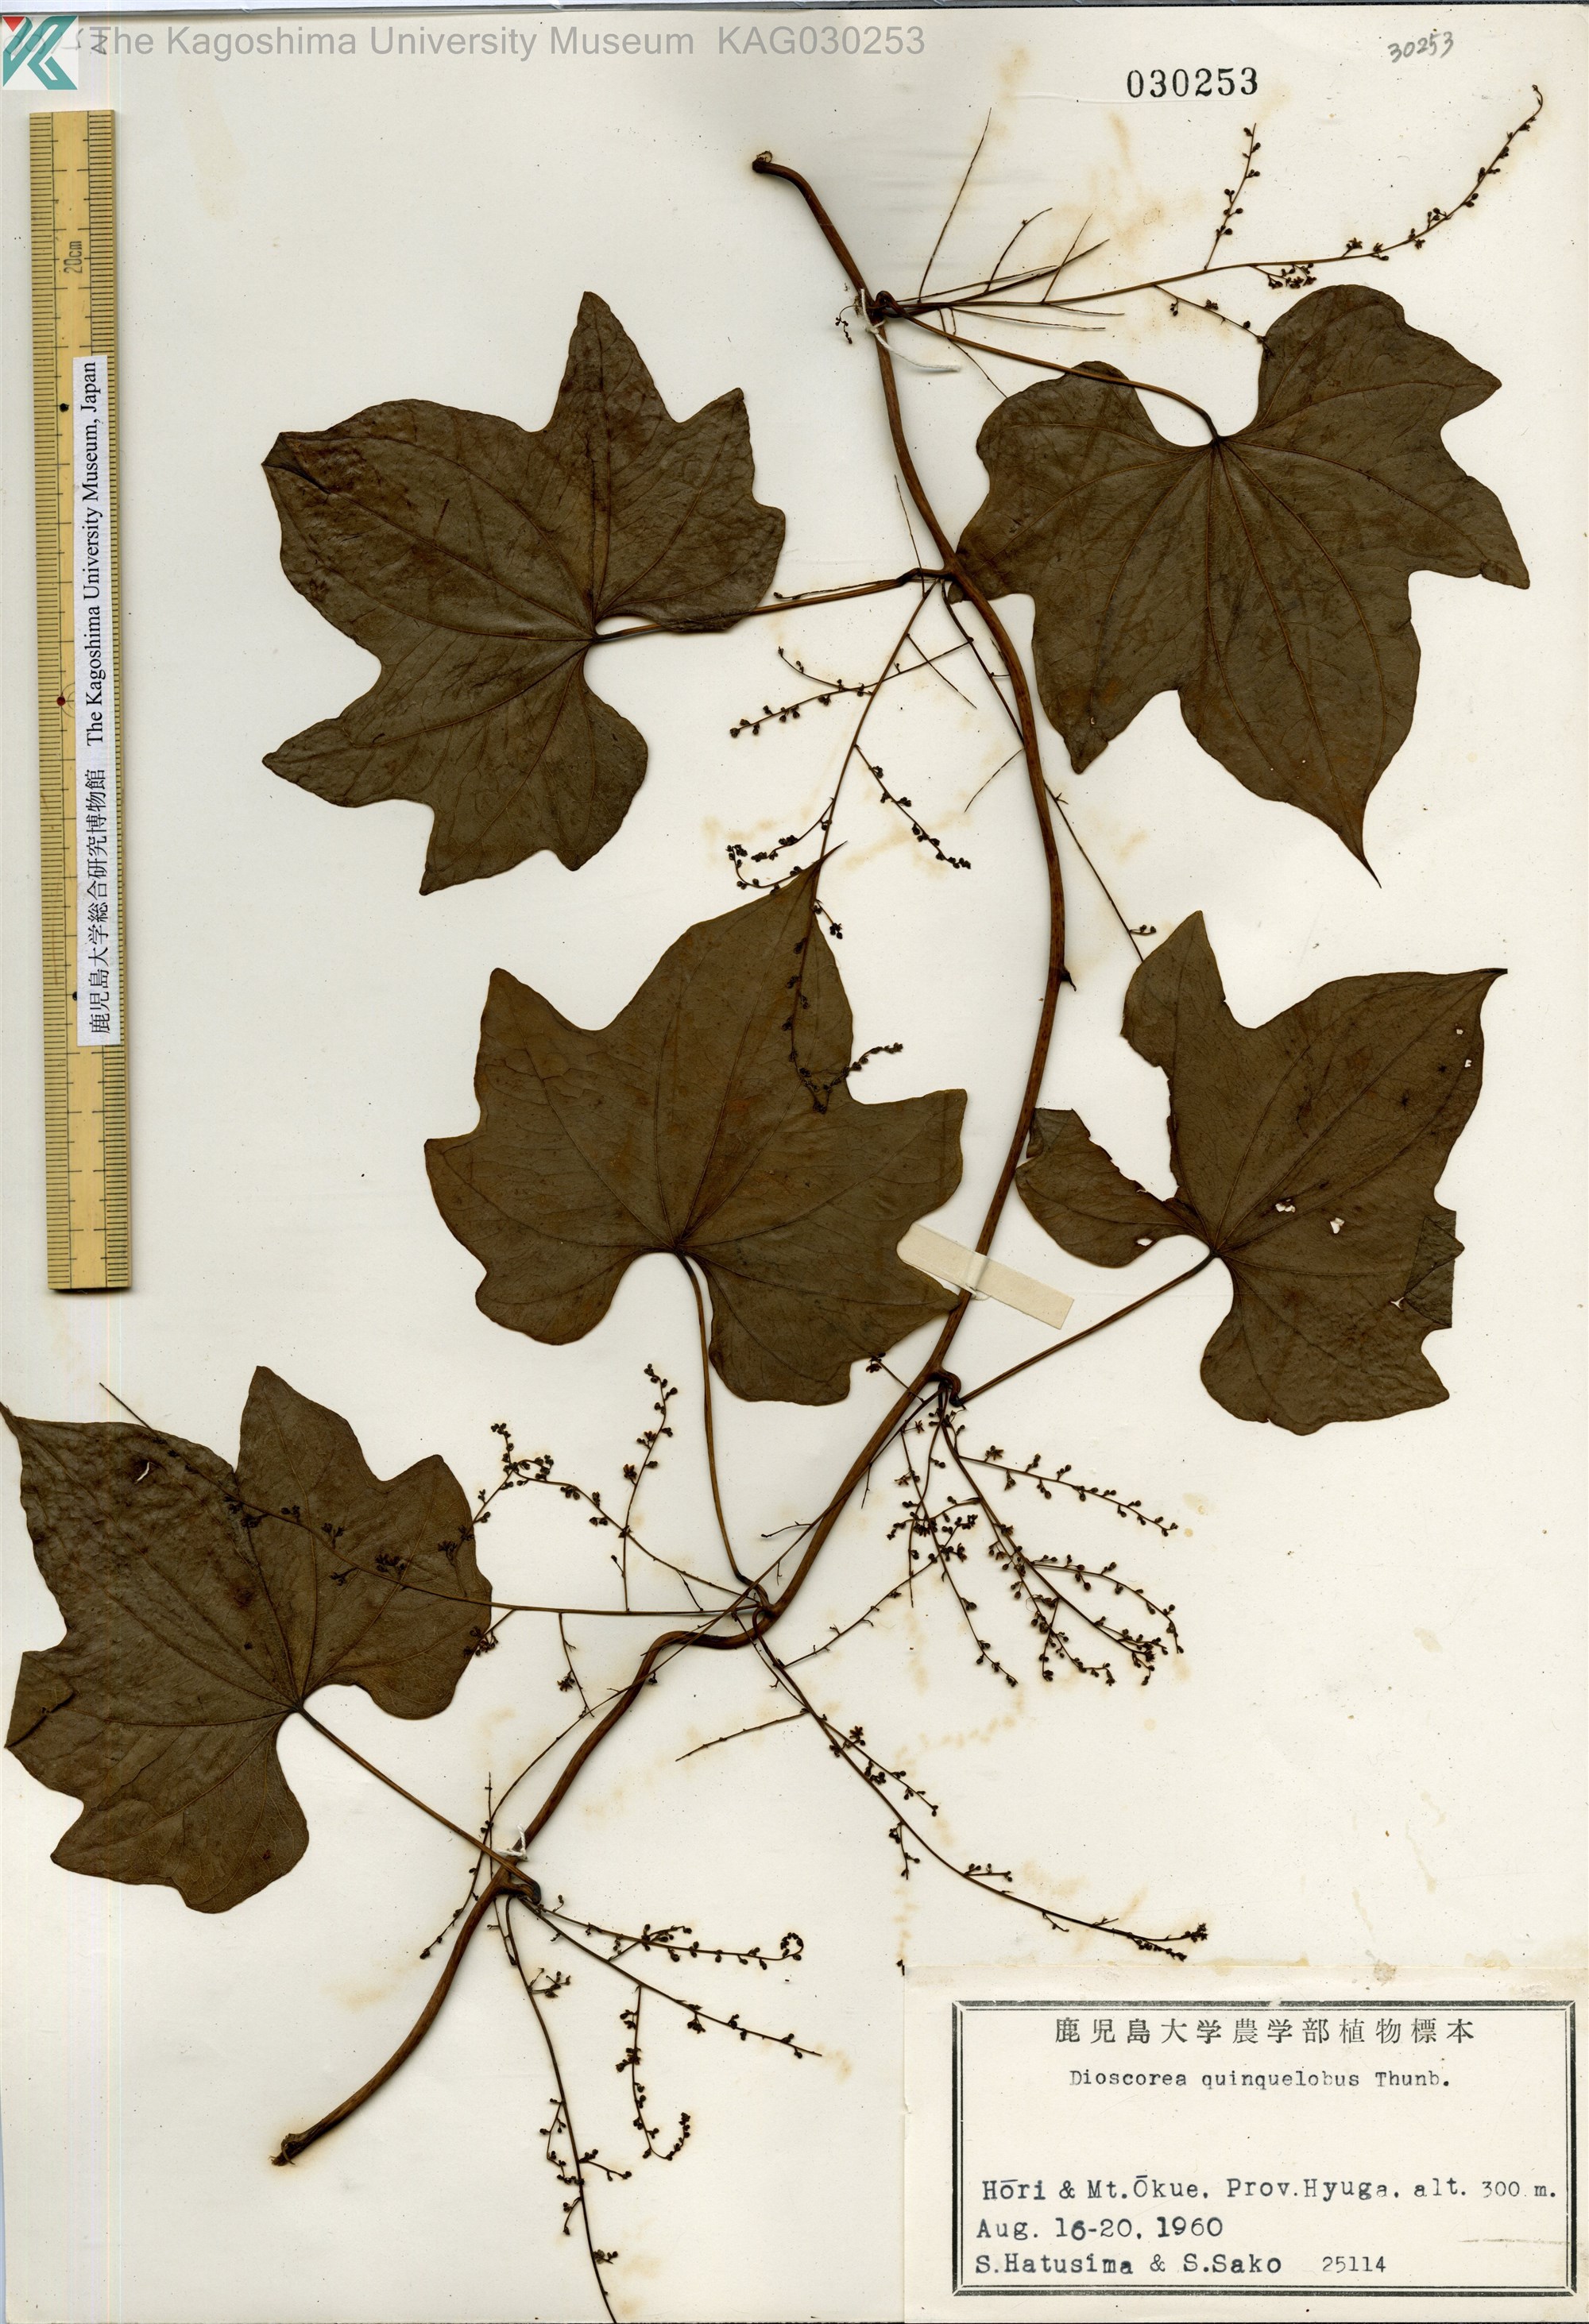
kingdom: Plantae
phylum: Tracheophyta
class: Liliopsida
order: Dioscoreales
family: Dioscoreaceae
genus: Dioscorea
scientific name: Dioscorea quinquelobata
